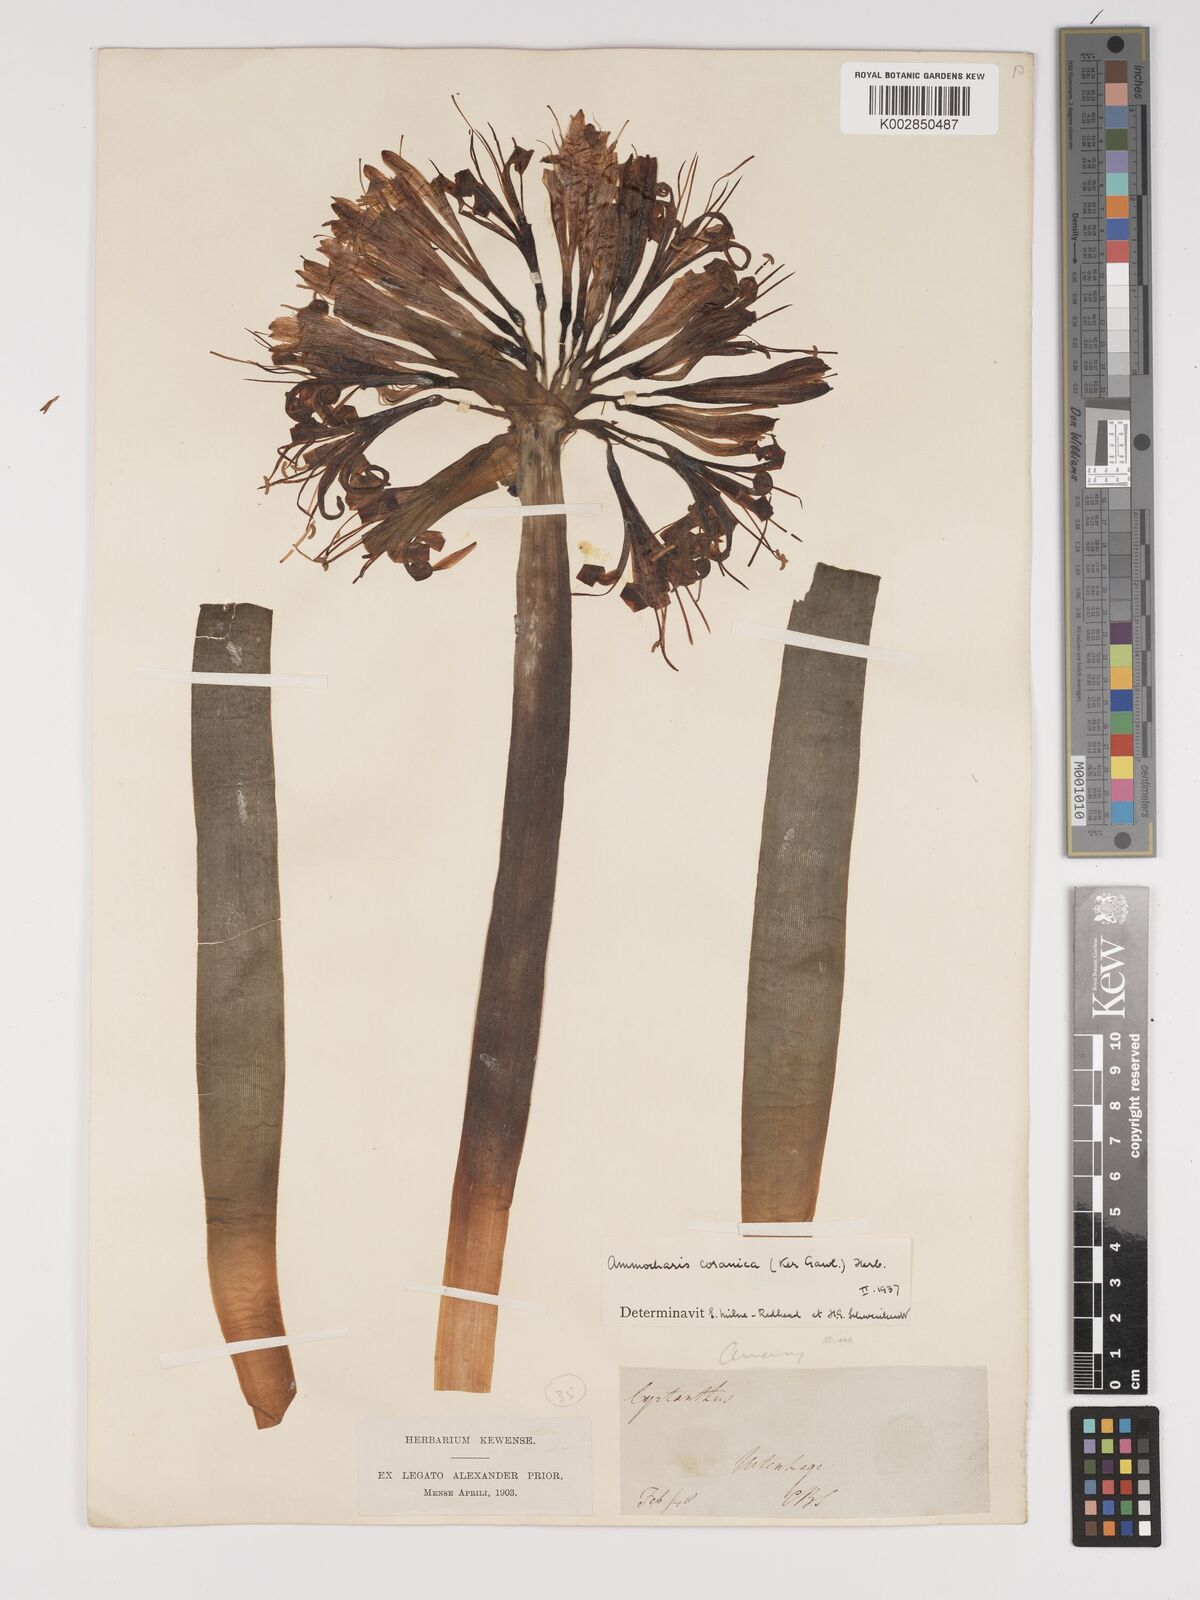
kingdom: Plantae
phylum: Tracheophyta
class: Liliopsida
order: Asparagales
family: Amaryllidaceae
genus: Ammocharis
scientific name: Ammocharis coranica
